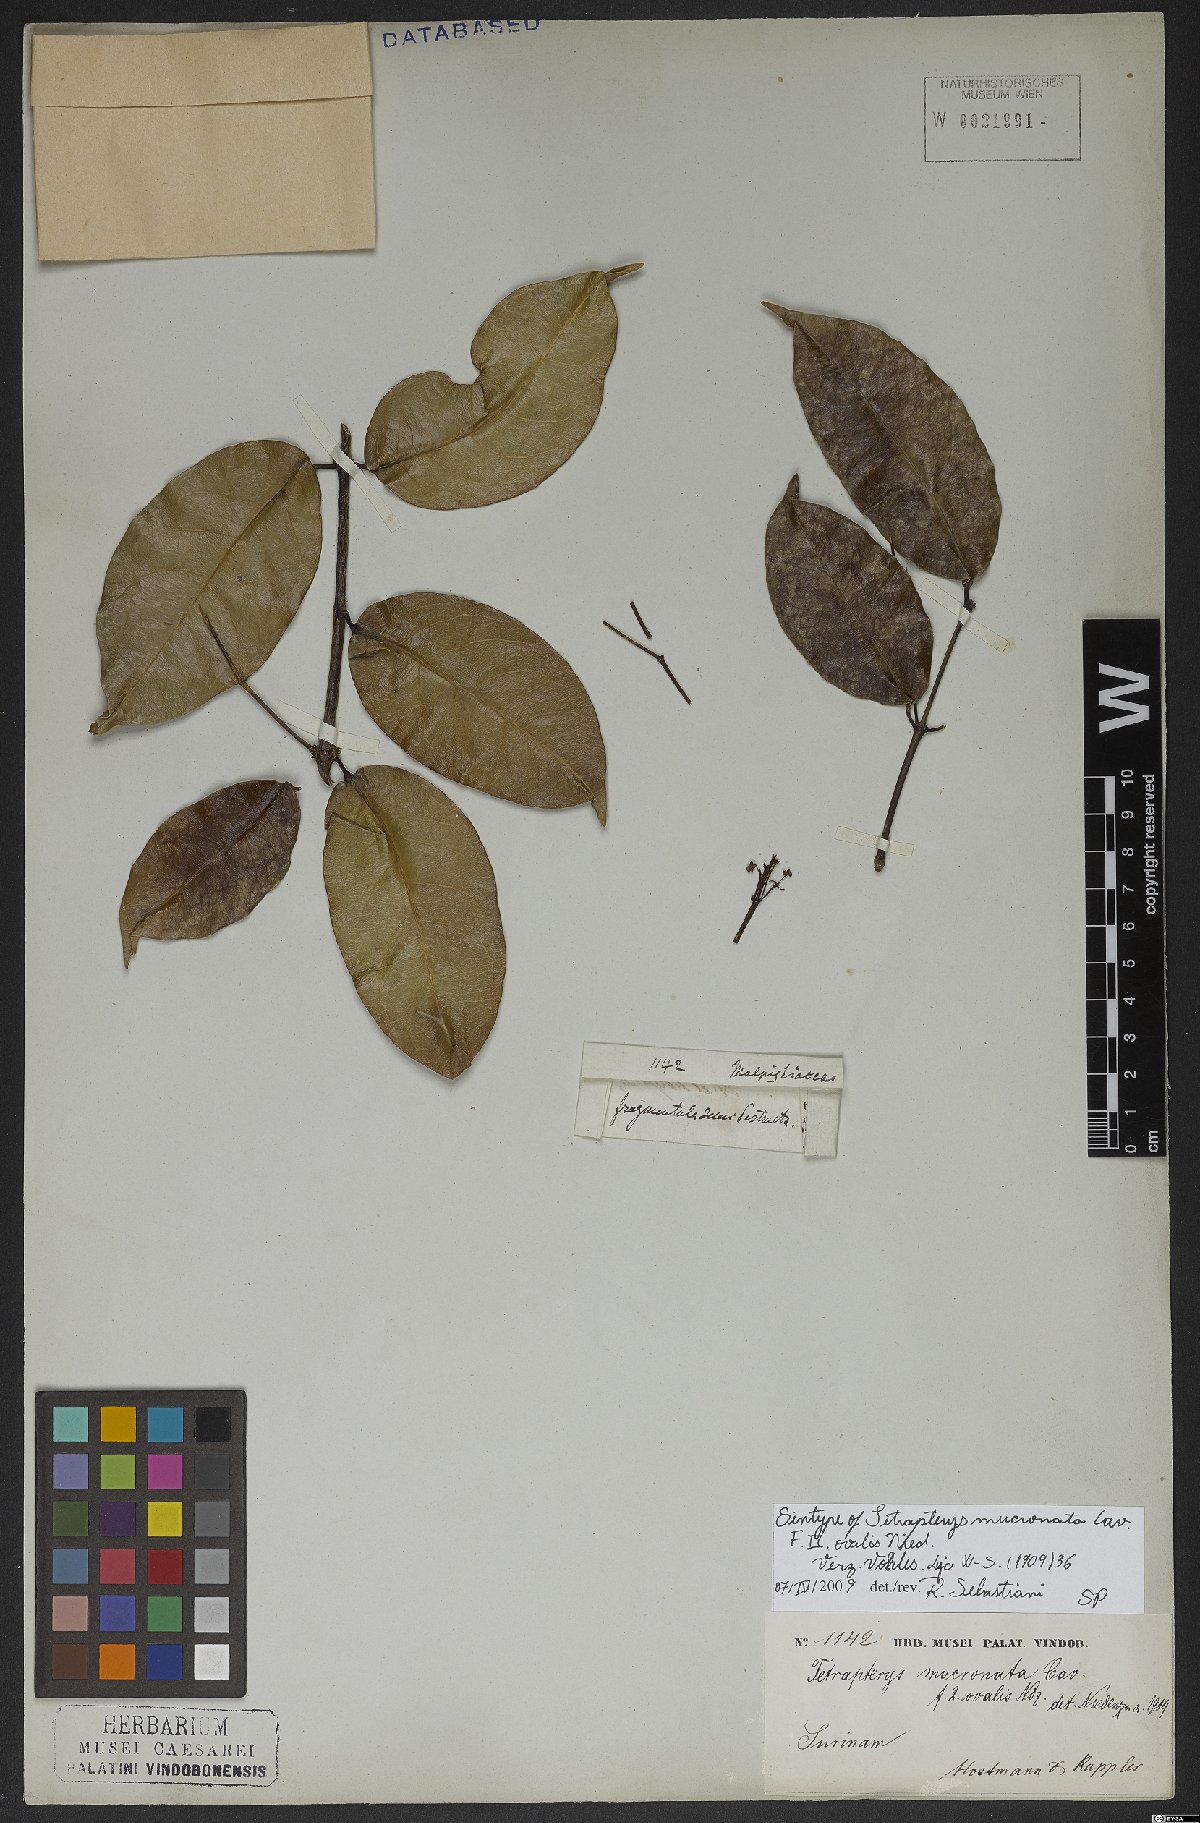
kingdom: Plantae
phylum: Tracheophyta
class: Magnoliopsida
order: Malpighiales
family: Malpighiaceae
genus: Tetrapterys
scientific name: Tetrapterys mucronata
